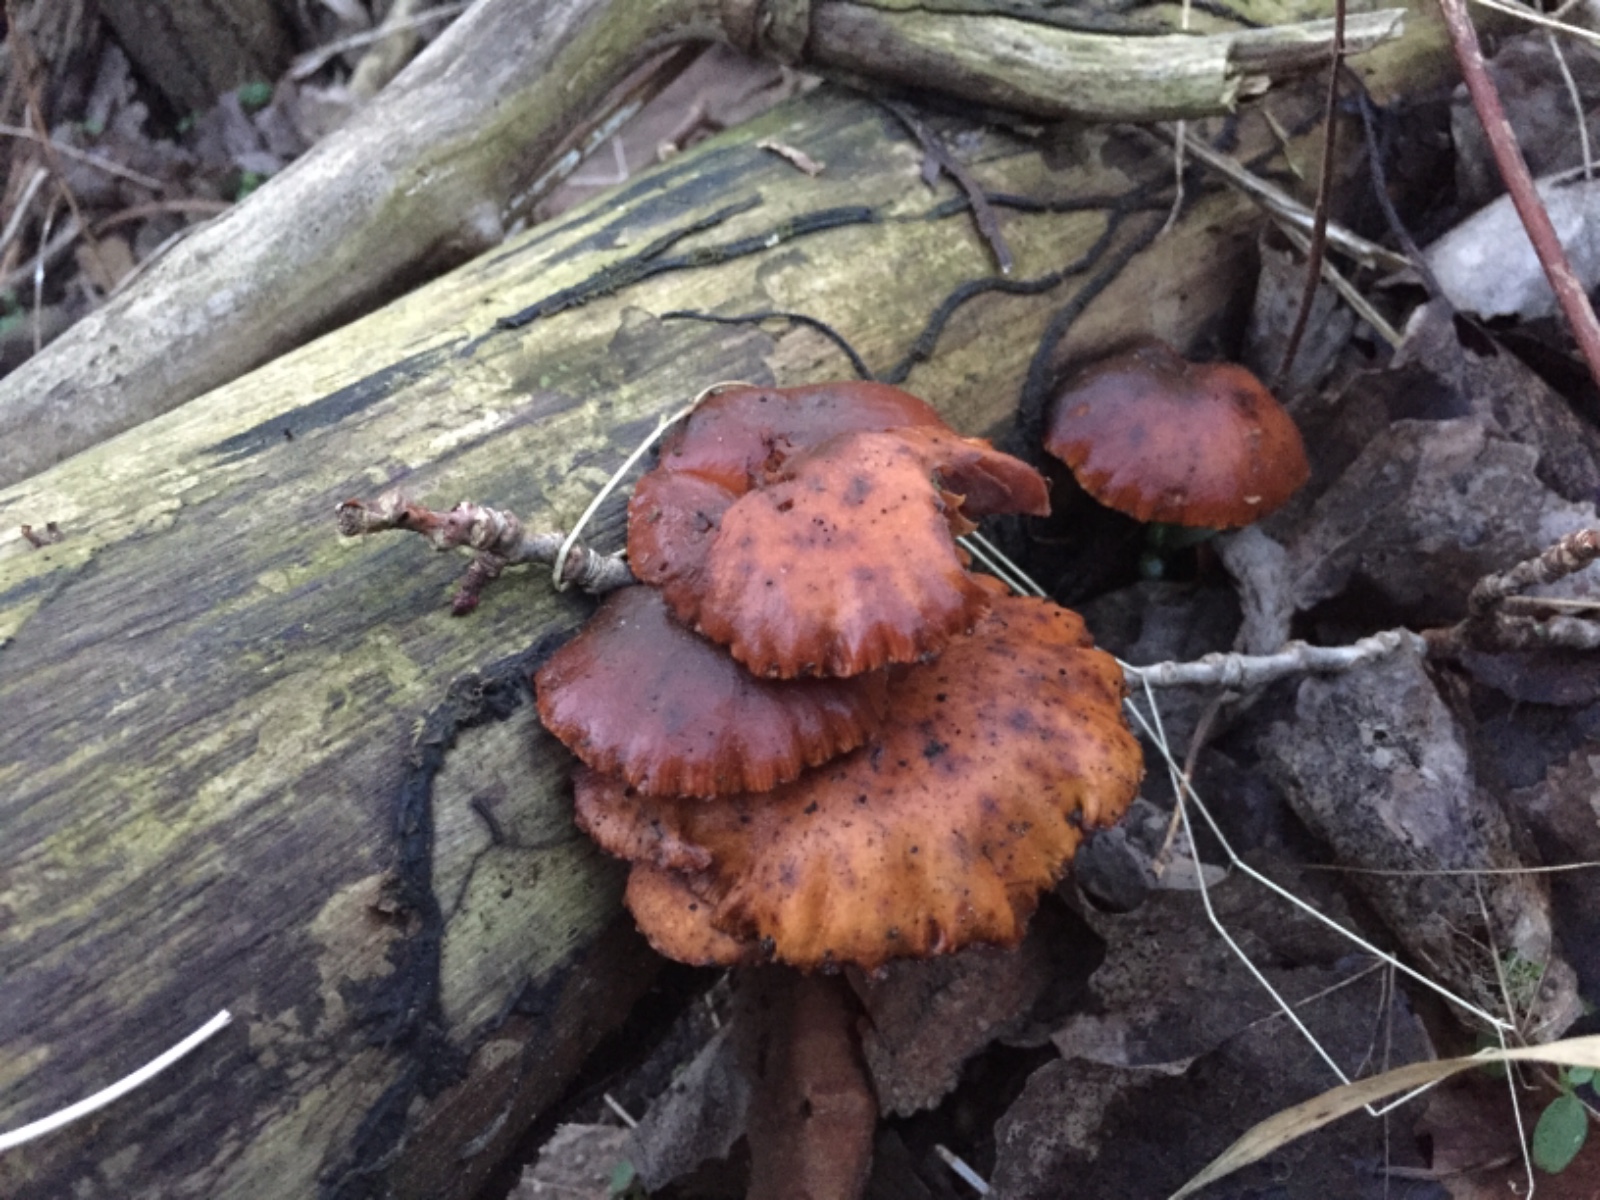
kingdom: Fungi
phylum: Basidiomycota
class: Agaricomycetes
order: Agaricales
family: Physalacriaceae
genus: Flammulina
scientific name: Flammulina elastica
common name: pile-fløjlsfod
